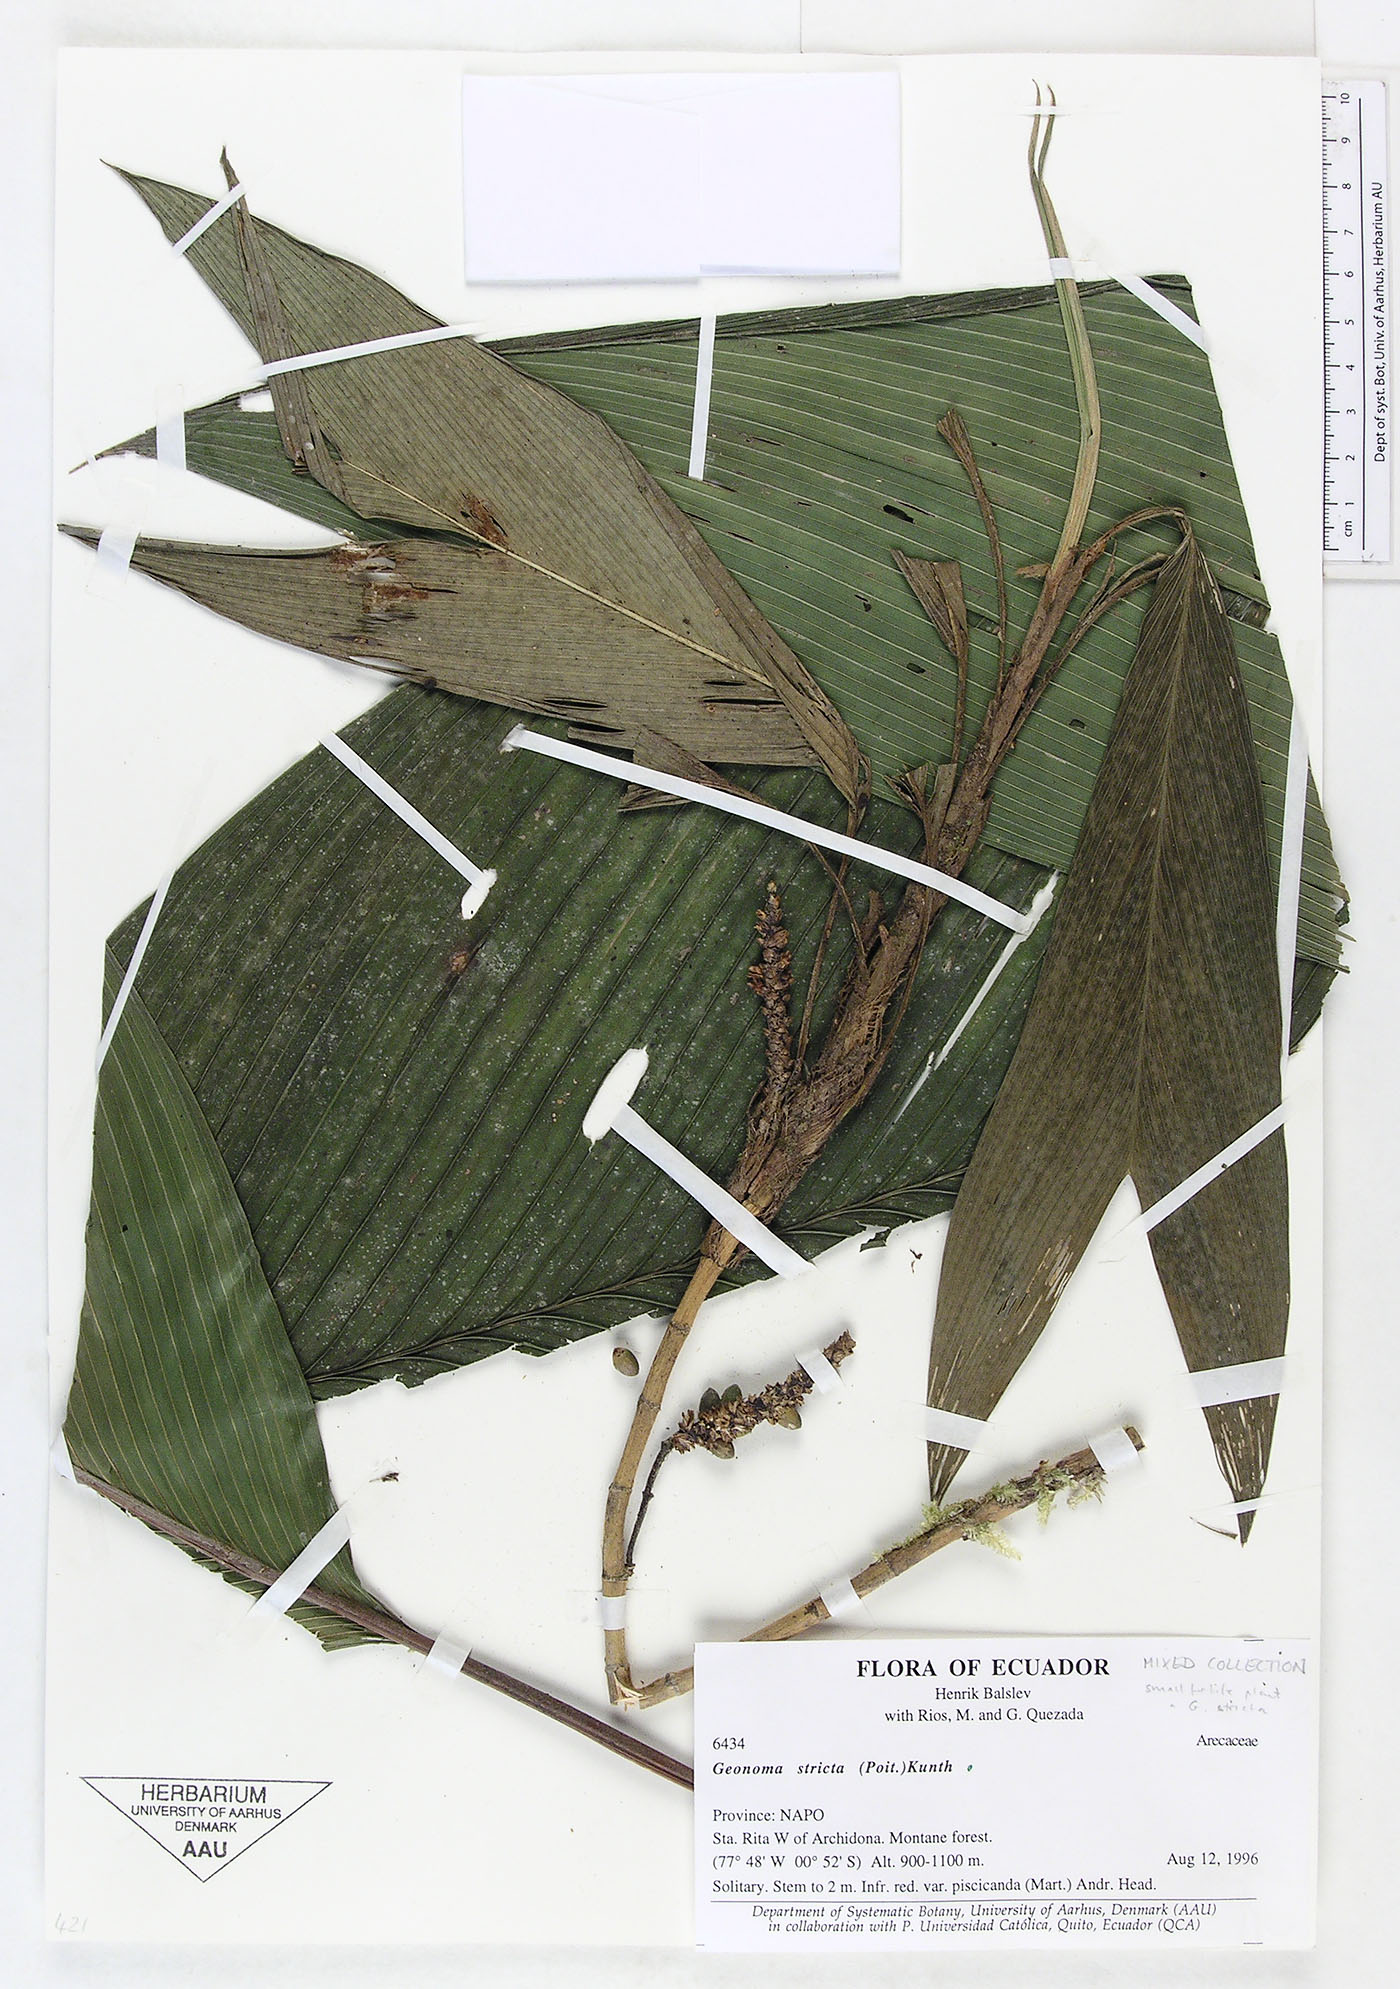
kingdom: Plantae
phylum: Tracheophyta
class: Liliopsida
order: Arecales
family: Arecaceae
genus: Geonoma
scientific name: Geonoma stricta
